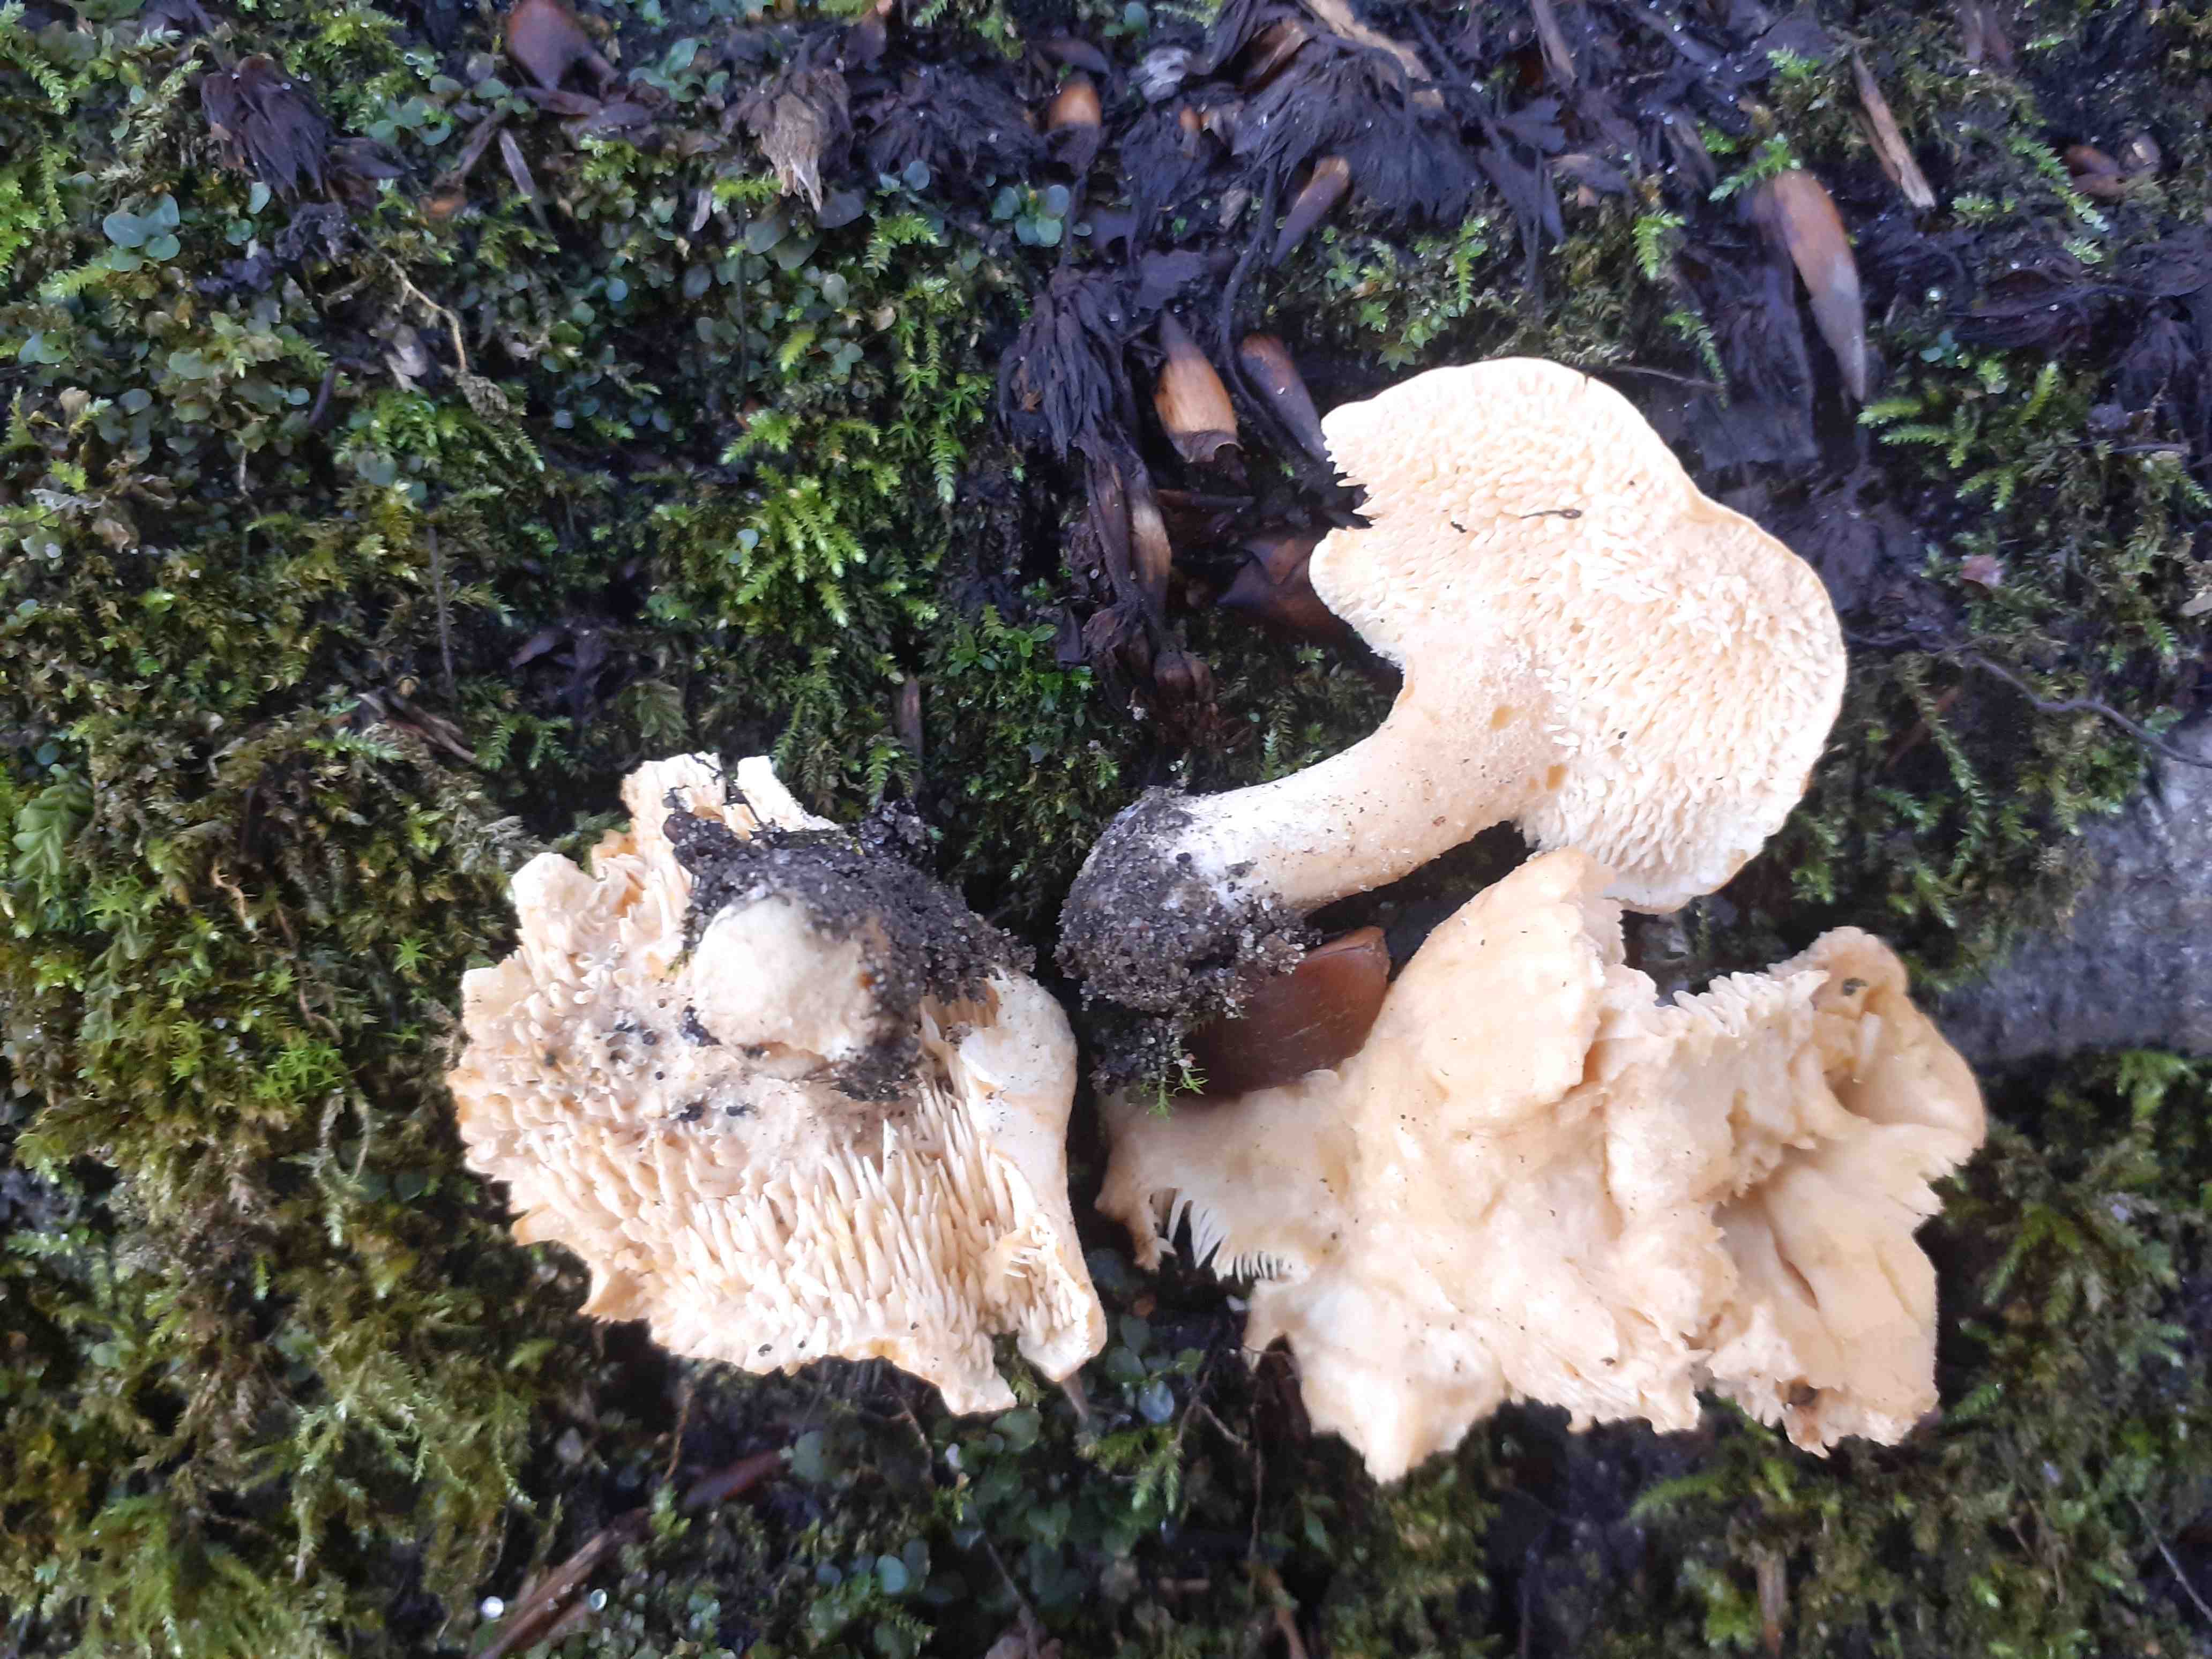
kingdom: Fungi
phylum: Basidiomycota
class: Agaricomycetes
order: Cantharellales
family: Hydnaceae
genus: Hydnum
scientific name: Hydnum vesterholtii
